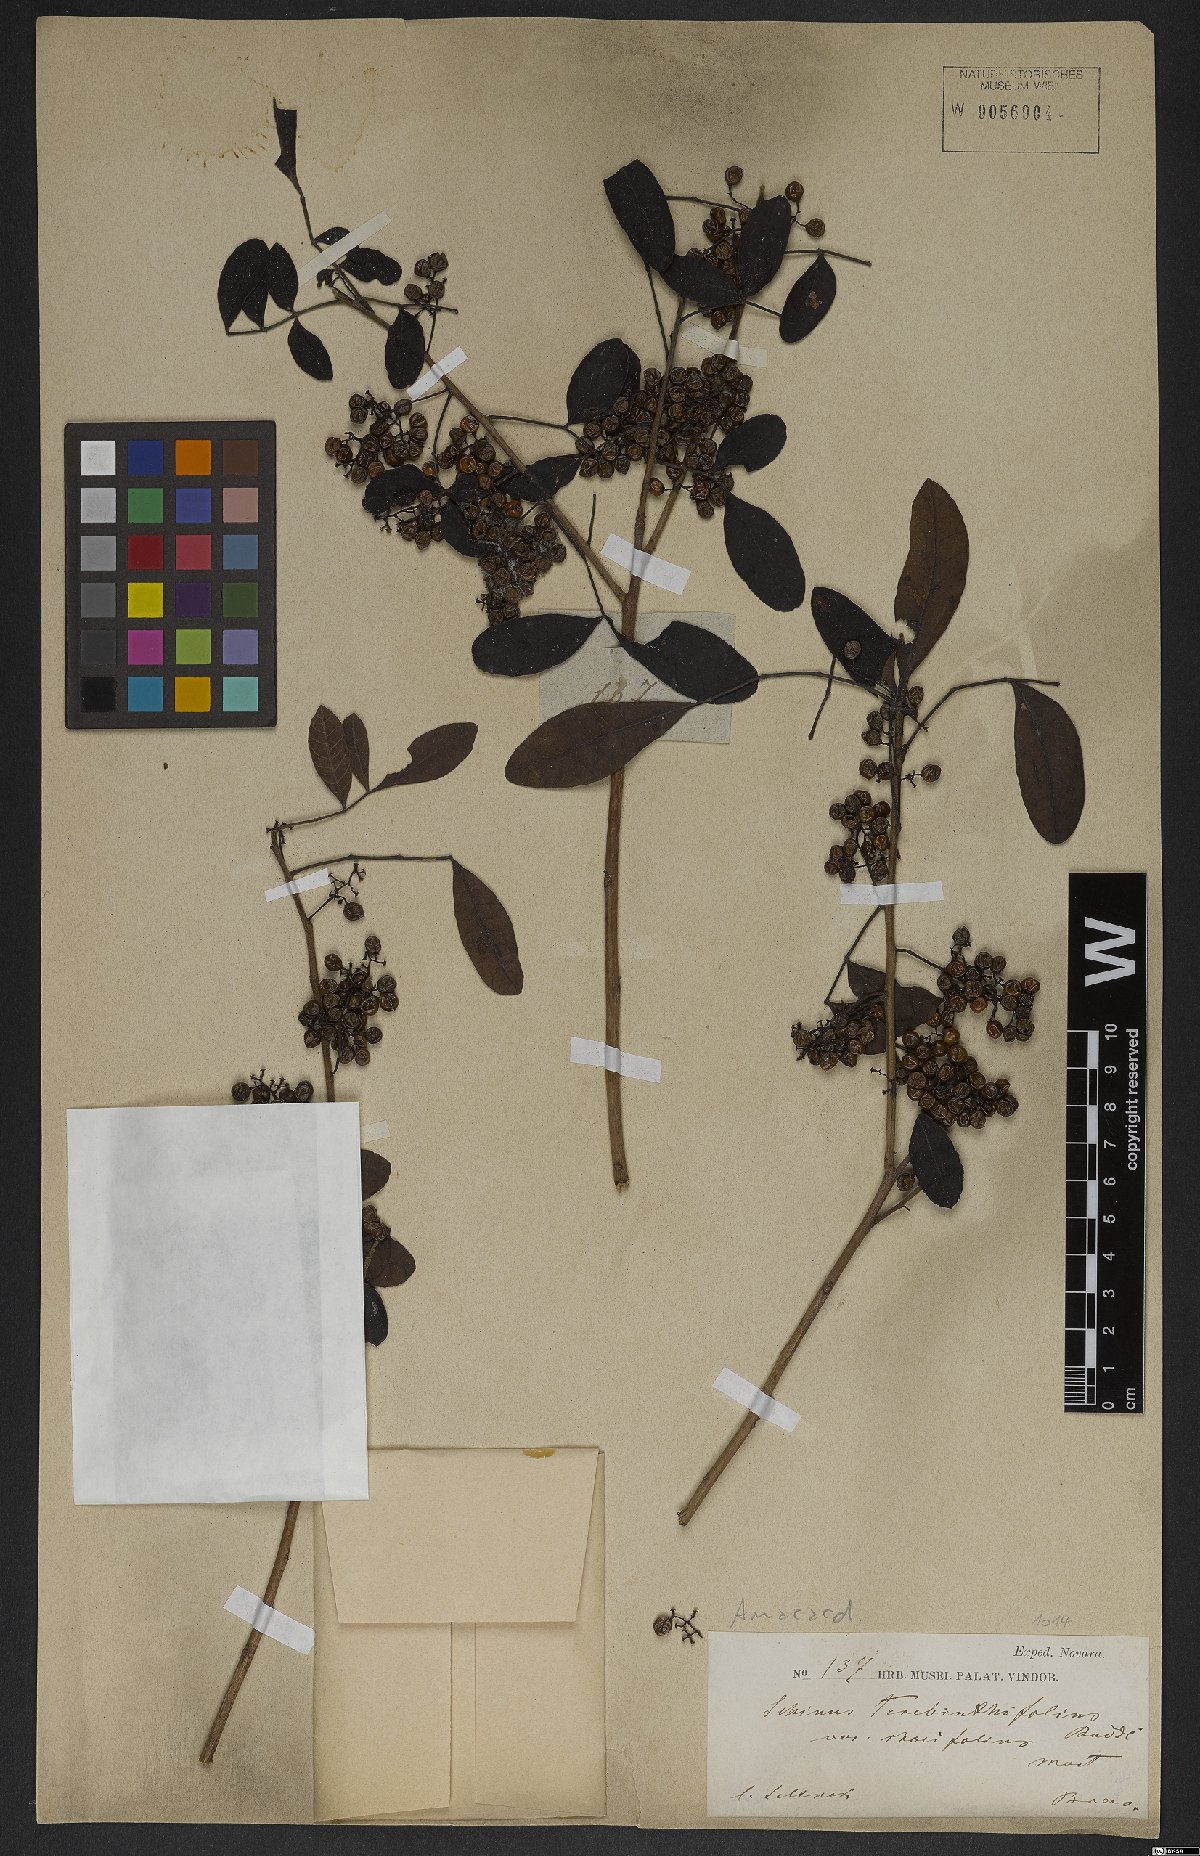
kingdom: Plantae
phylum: Tracheophyta
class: Magnoliopsida
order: Sapindales
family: Anacardiaceae
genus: Schinus
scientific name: Schinus terebinthifolia
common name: Brazilian peppertree
